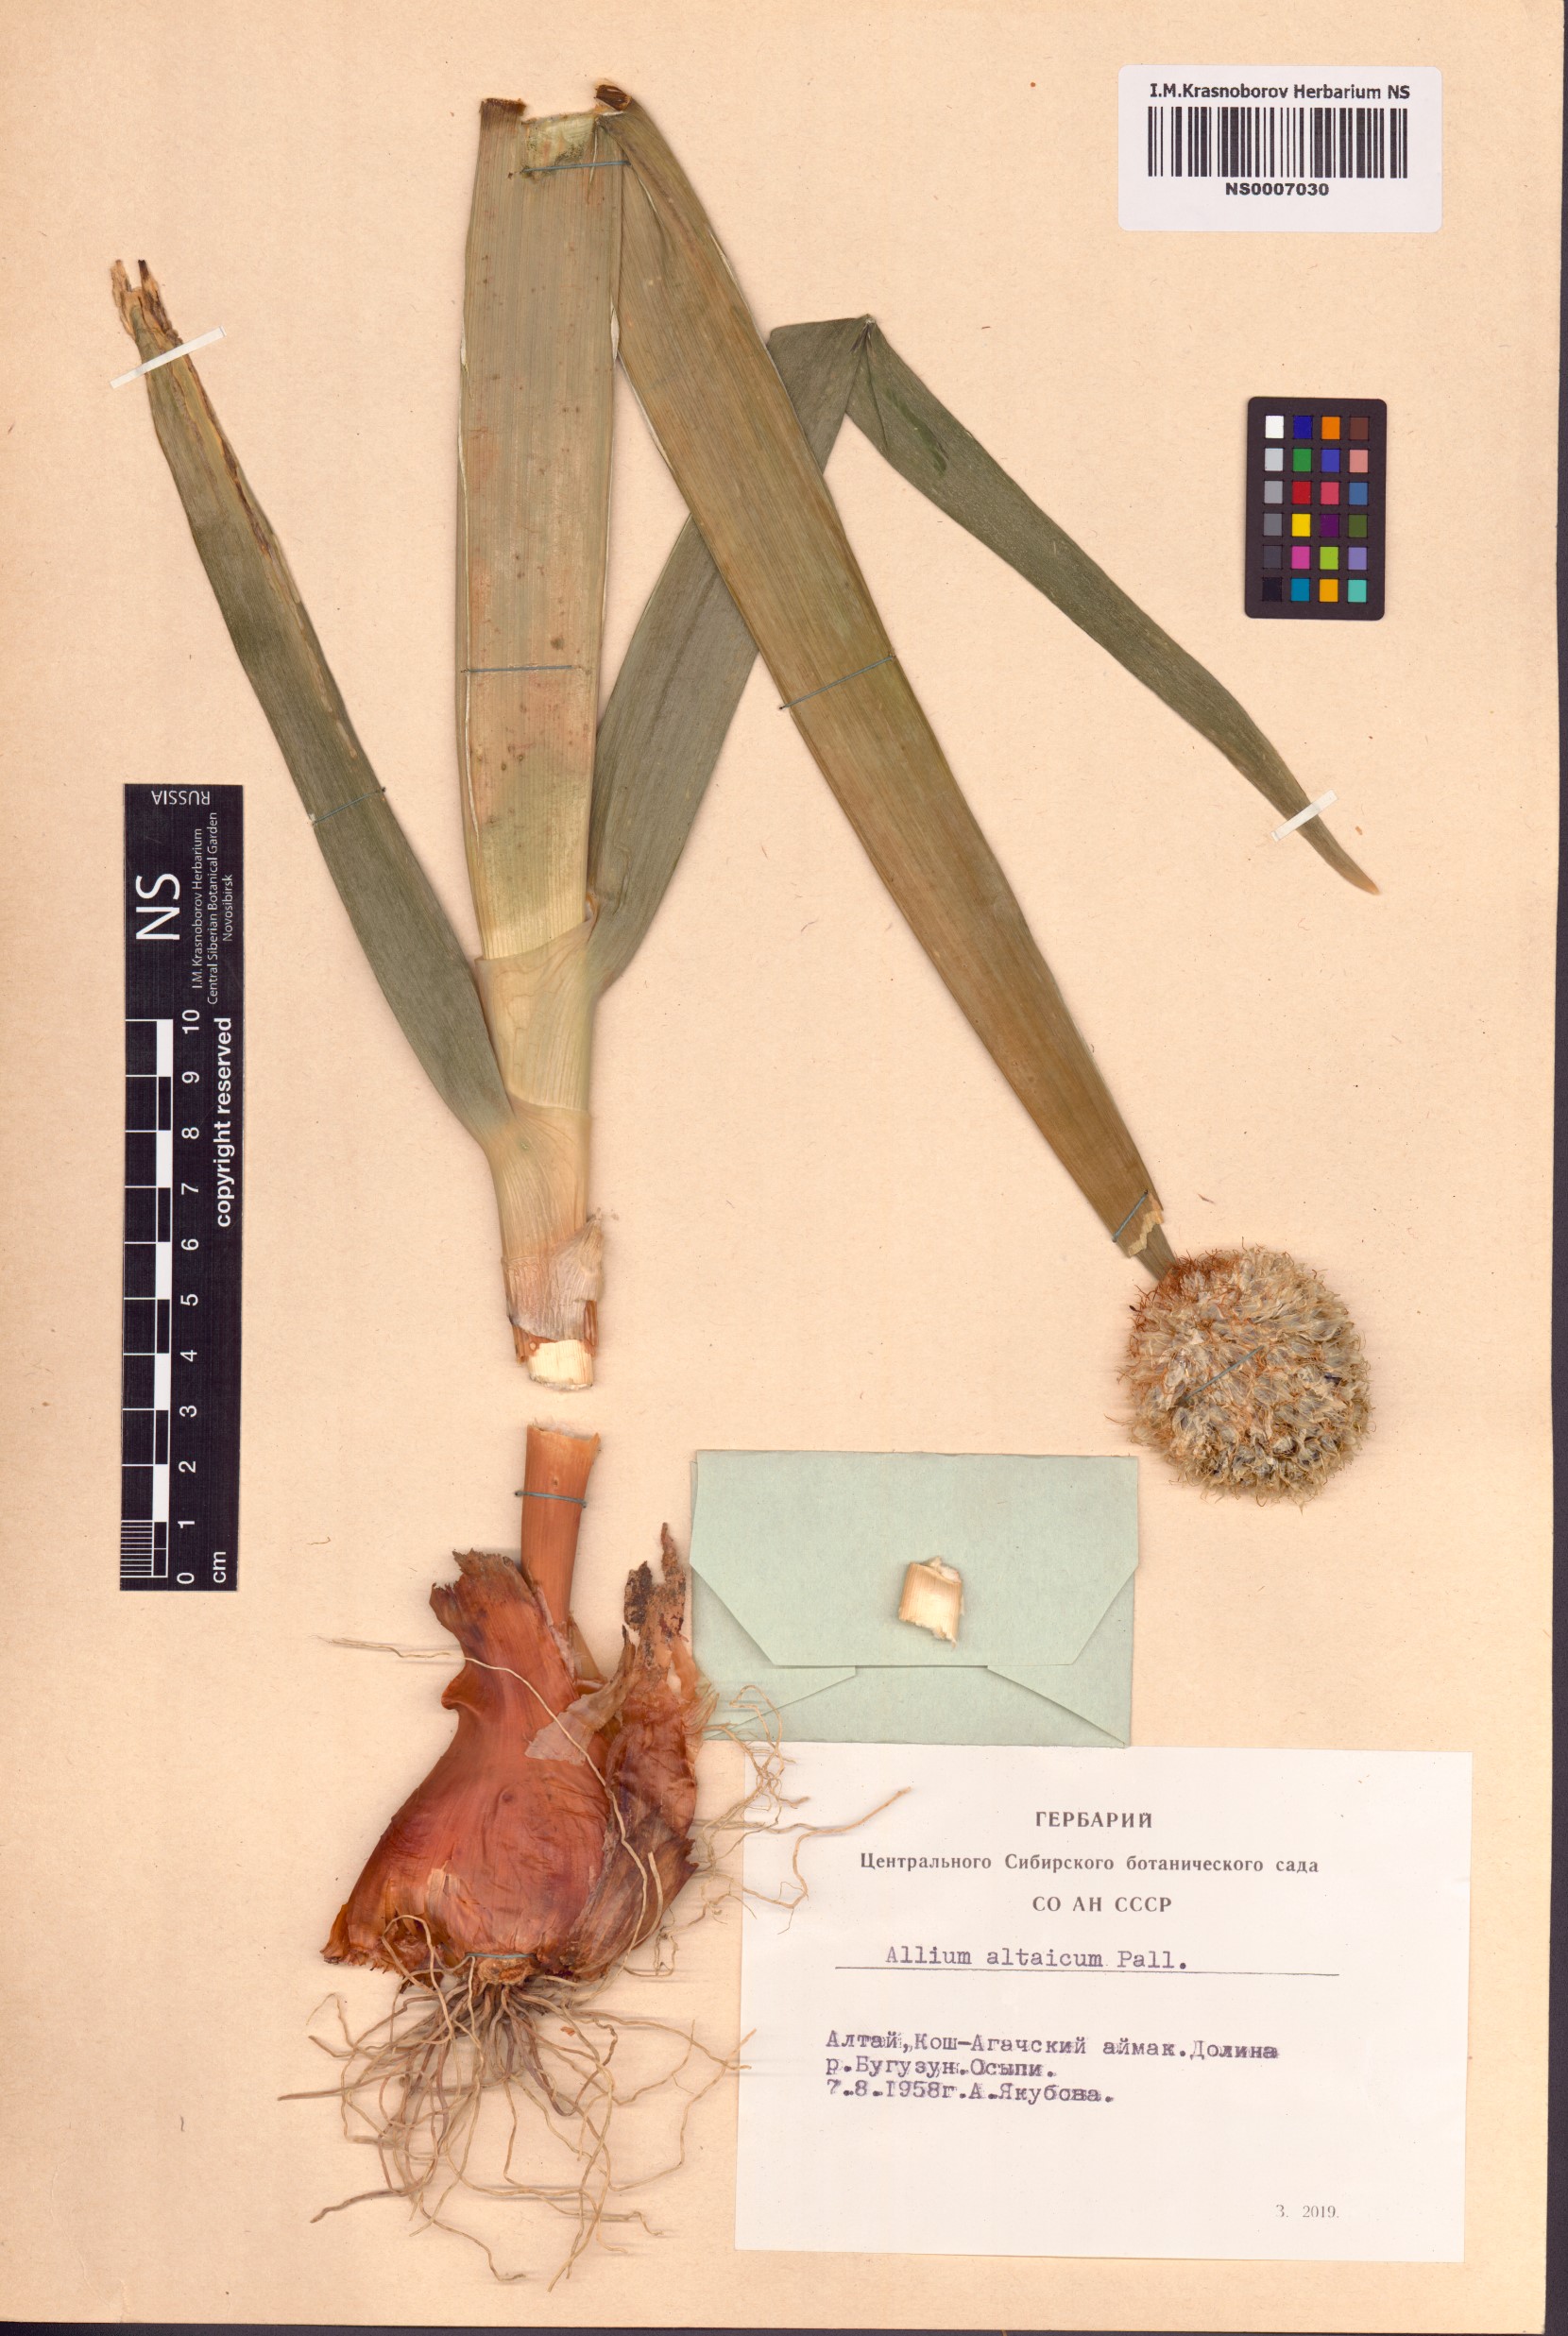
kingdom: Plantae
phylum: Tracheophyta
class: Liliopsida
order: Asparagales
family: Amaryllidaceae
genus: Allium
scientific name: Allium altaicum
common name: Altai onion
